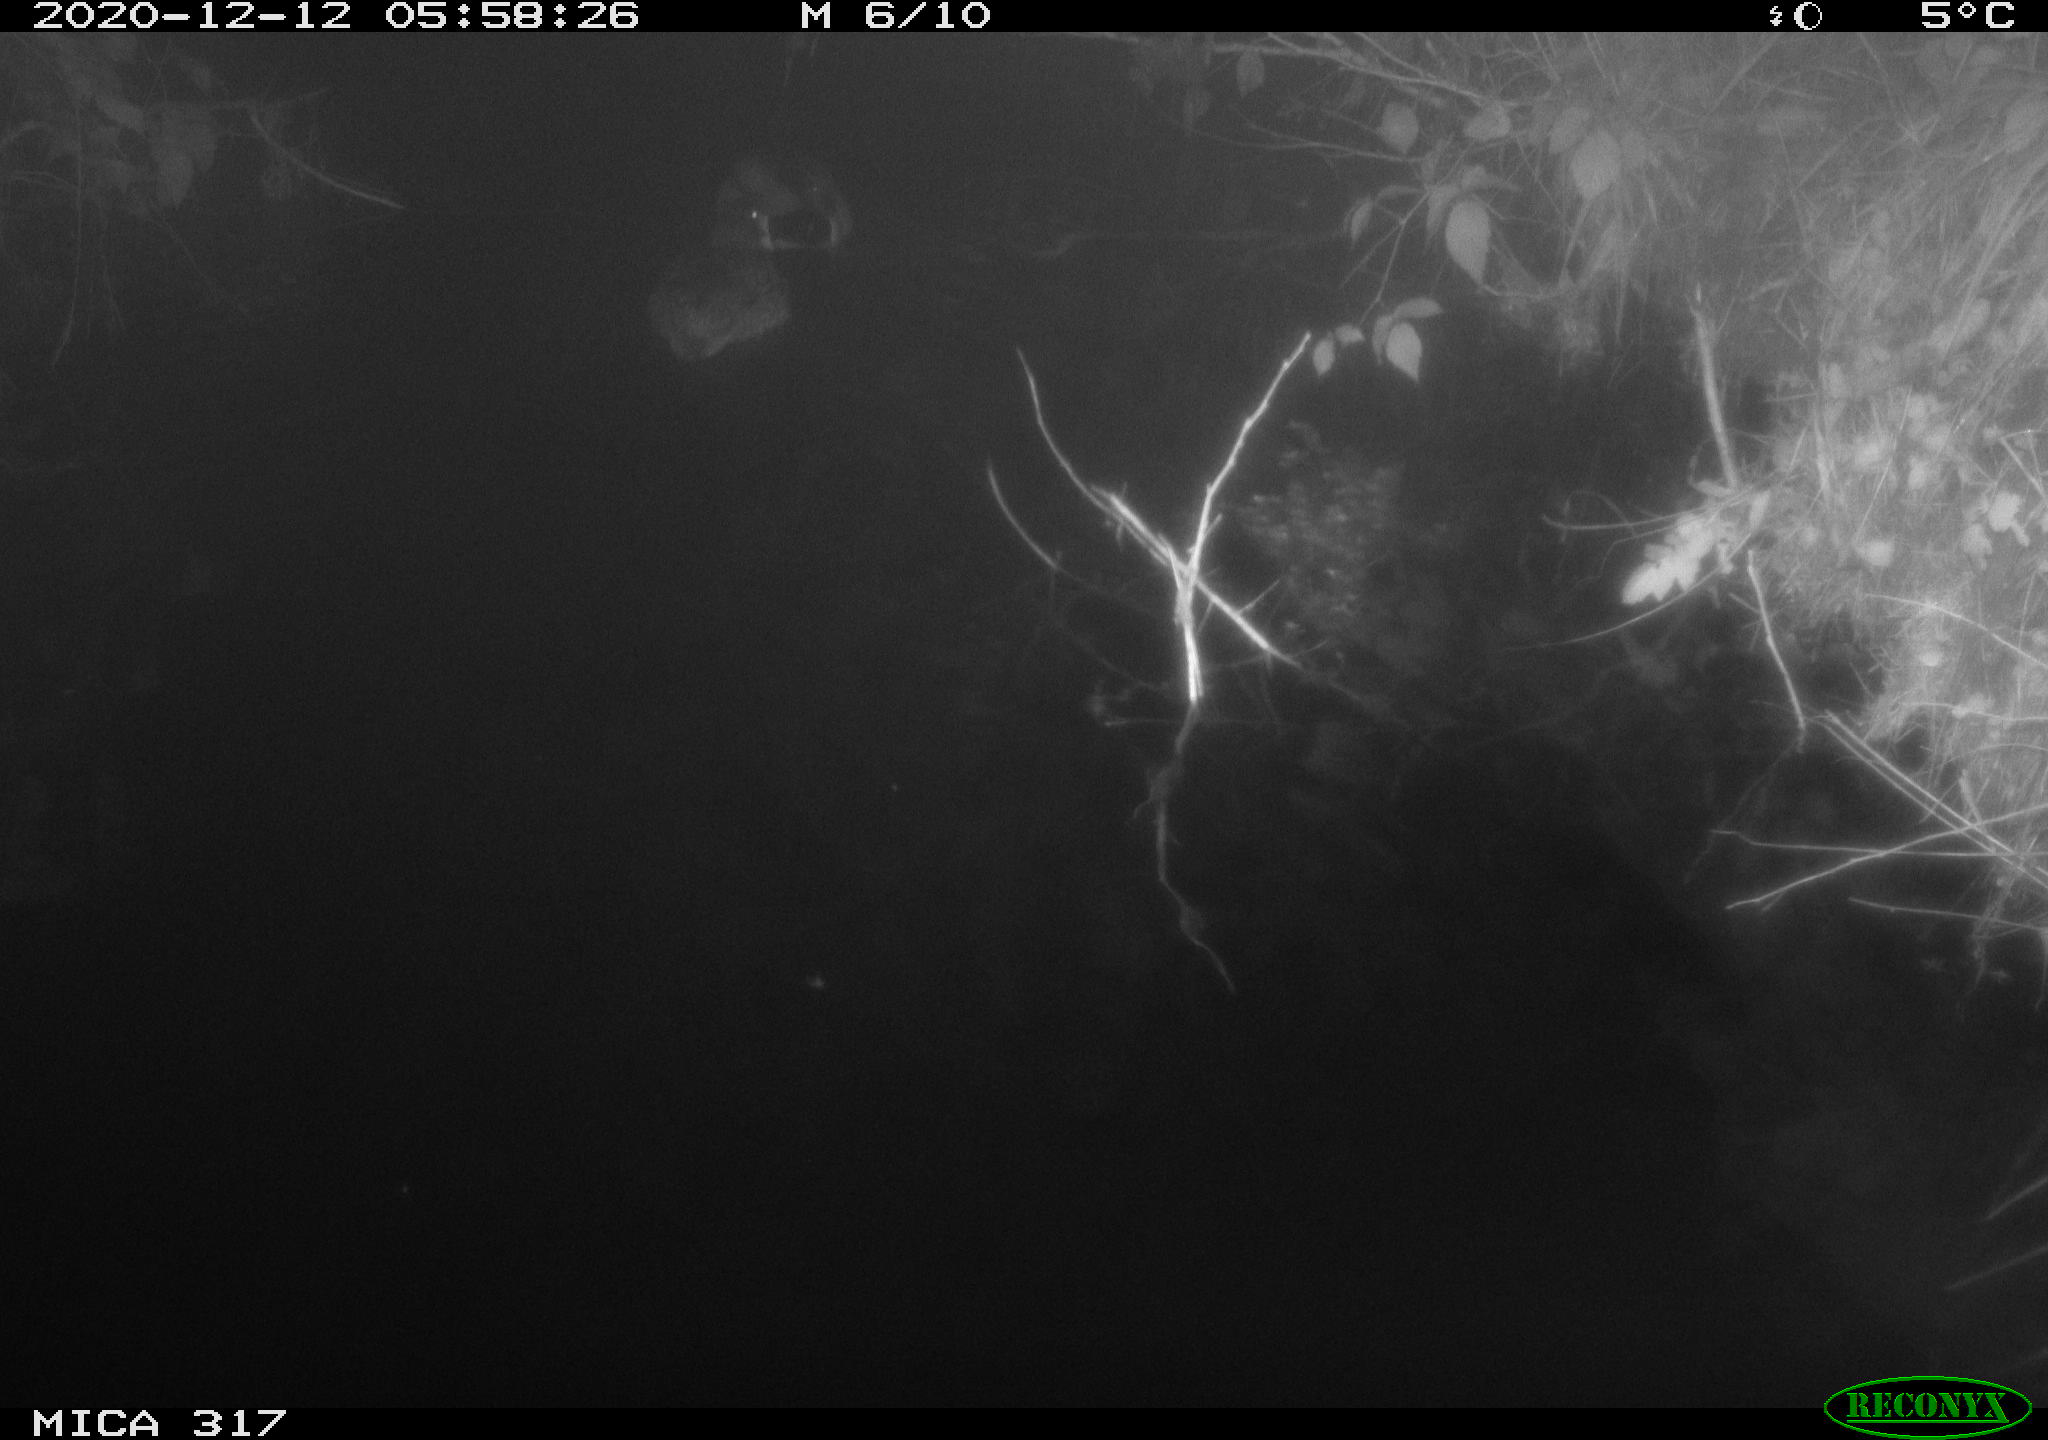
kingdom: Animalia
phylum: Chordata
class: Aves
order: Anseriformes
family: Anatidae
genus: Anas
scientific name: Anas platyrhynchos
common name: Mallard
